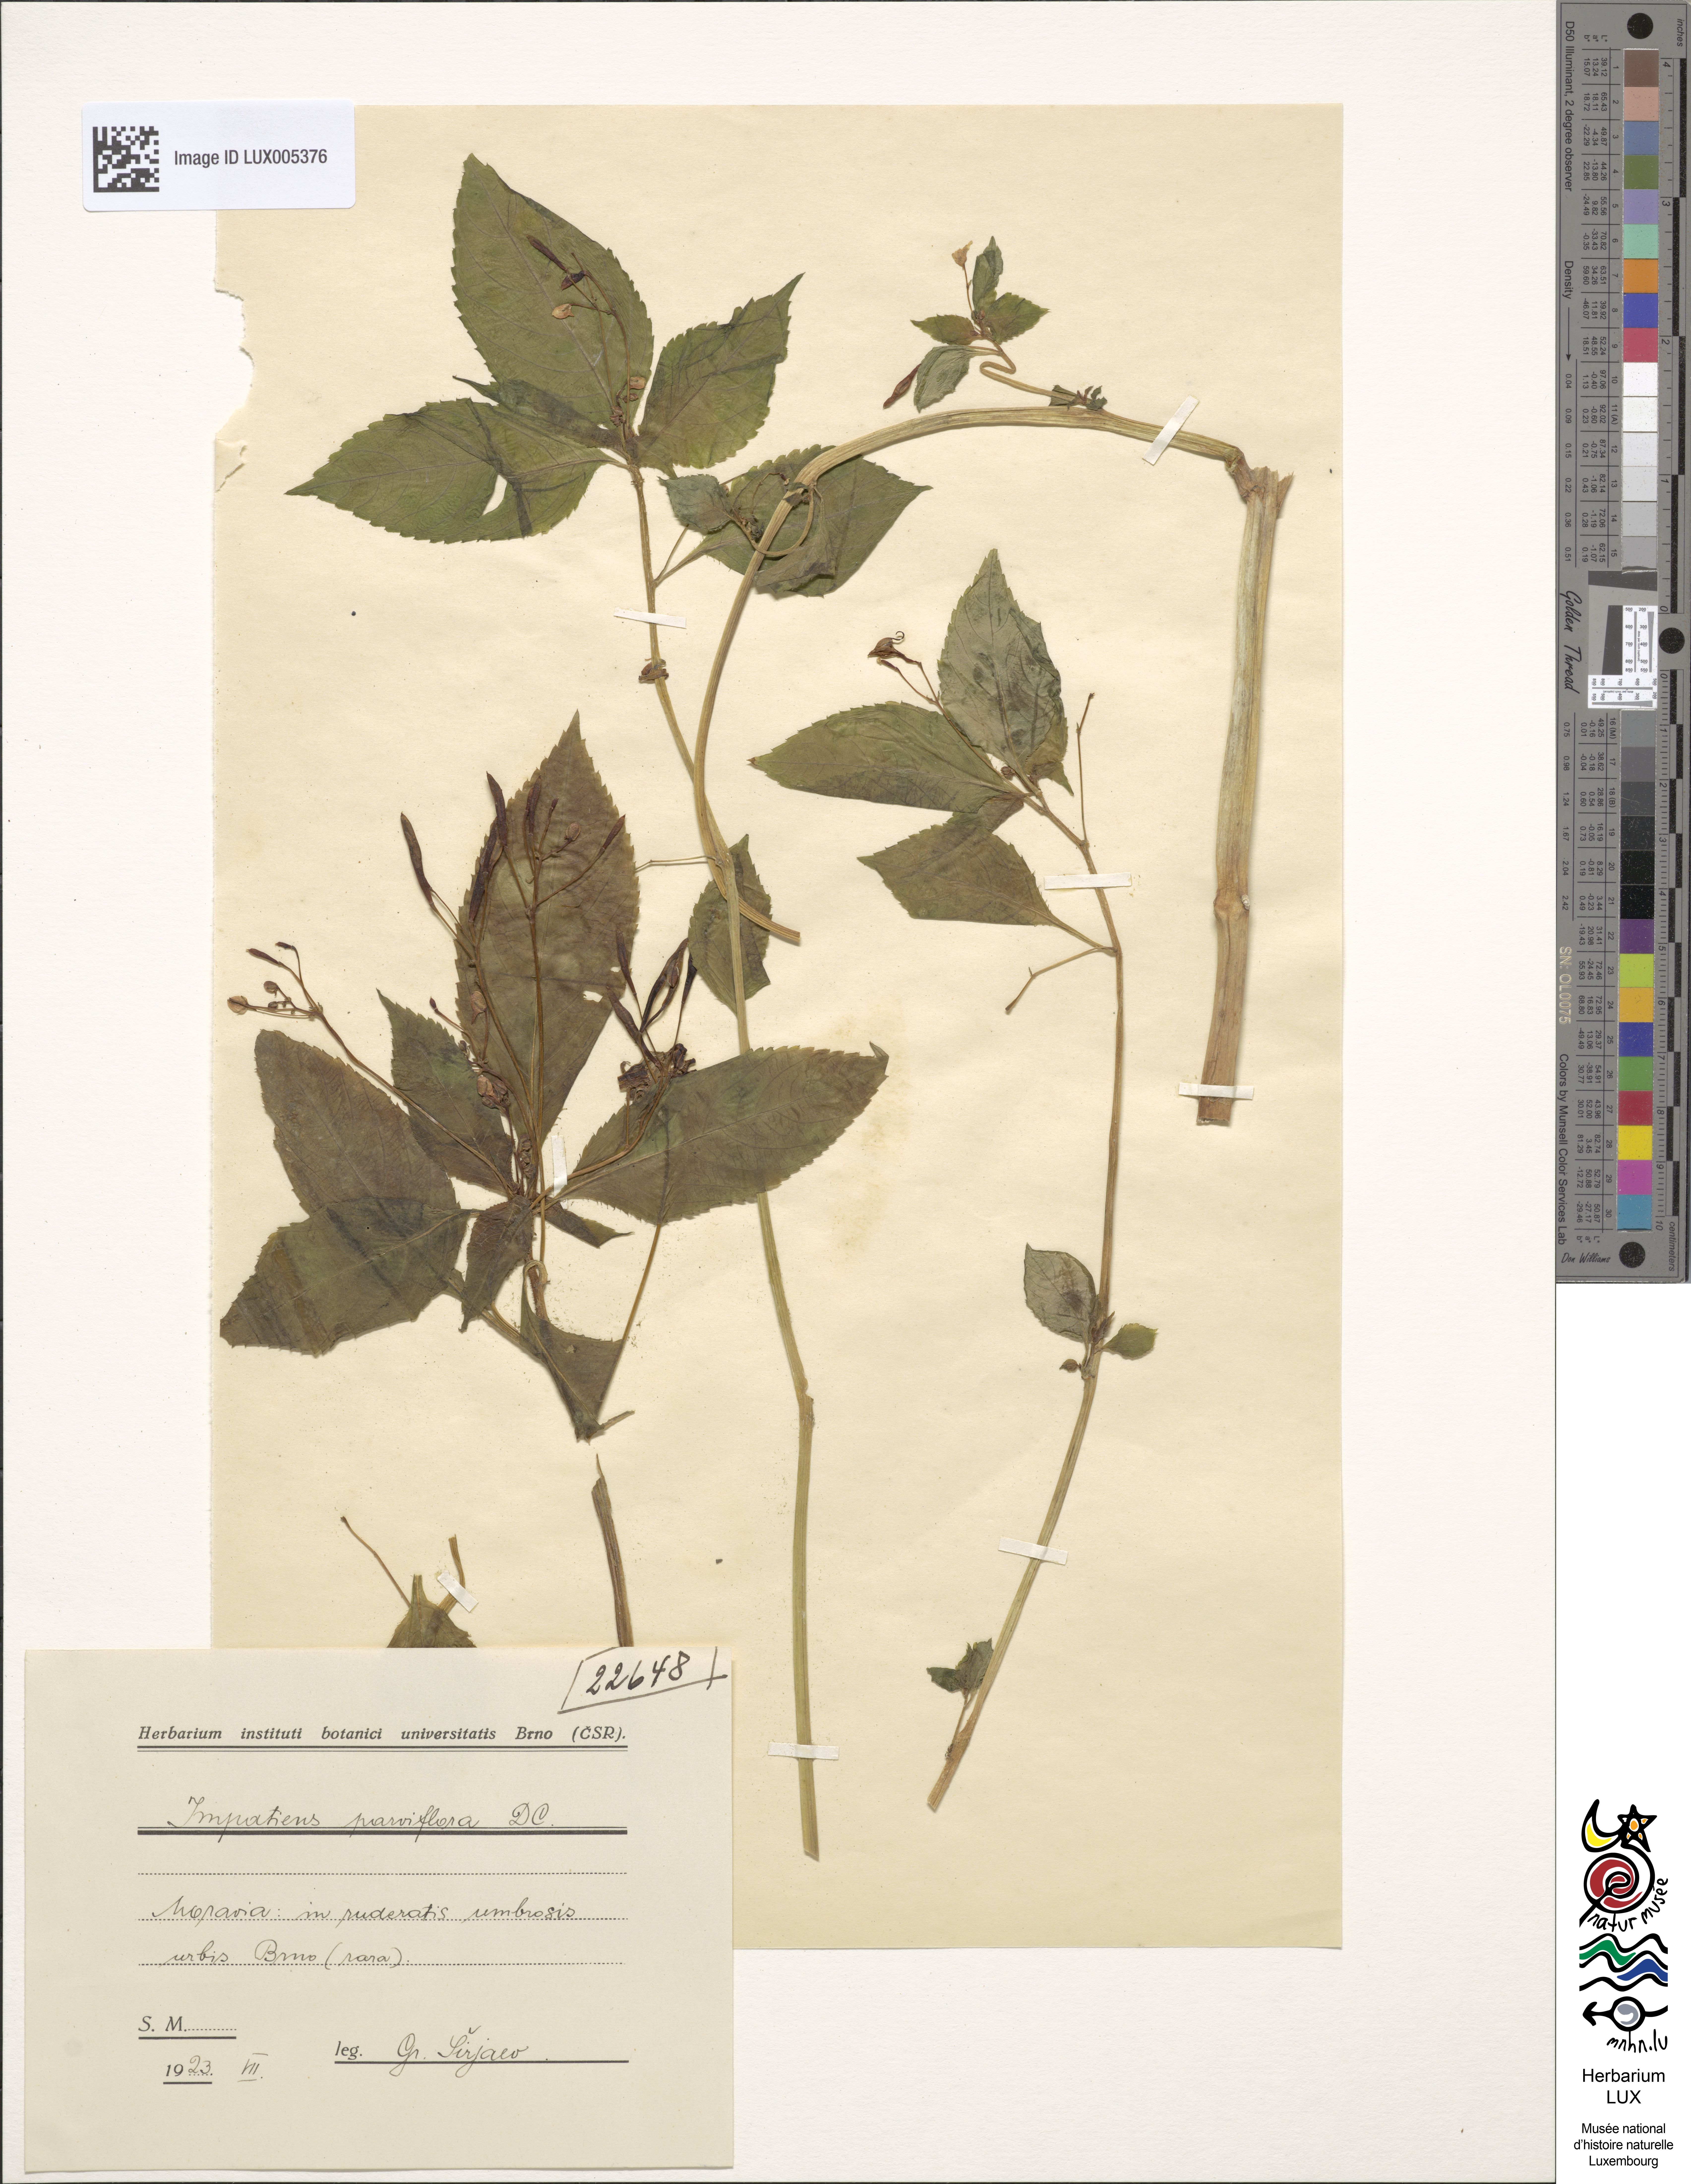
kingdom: Plantae
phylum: Tracheophyta
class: Magnoliopsida
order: Ericales
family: Balsaminaceae
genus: Impatiens
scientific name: Impatiens parviflora
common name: Small balsam
